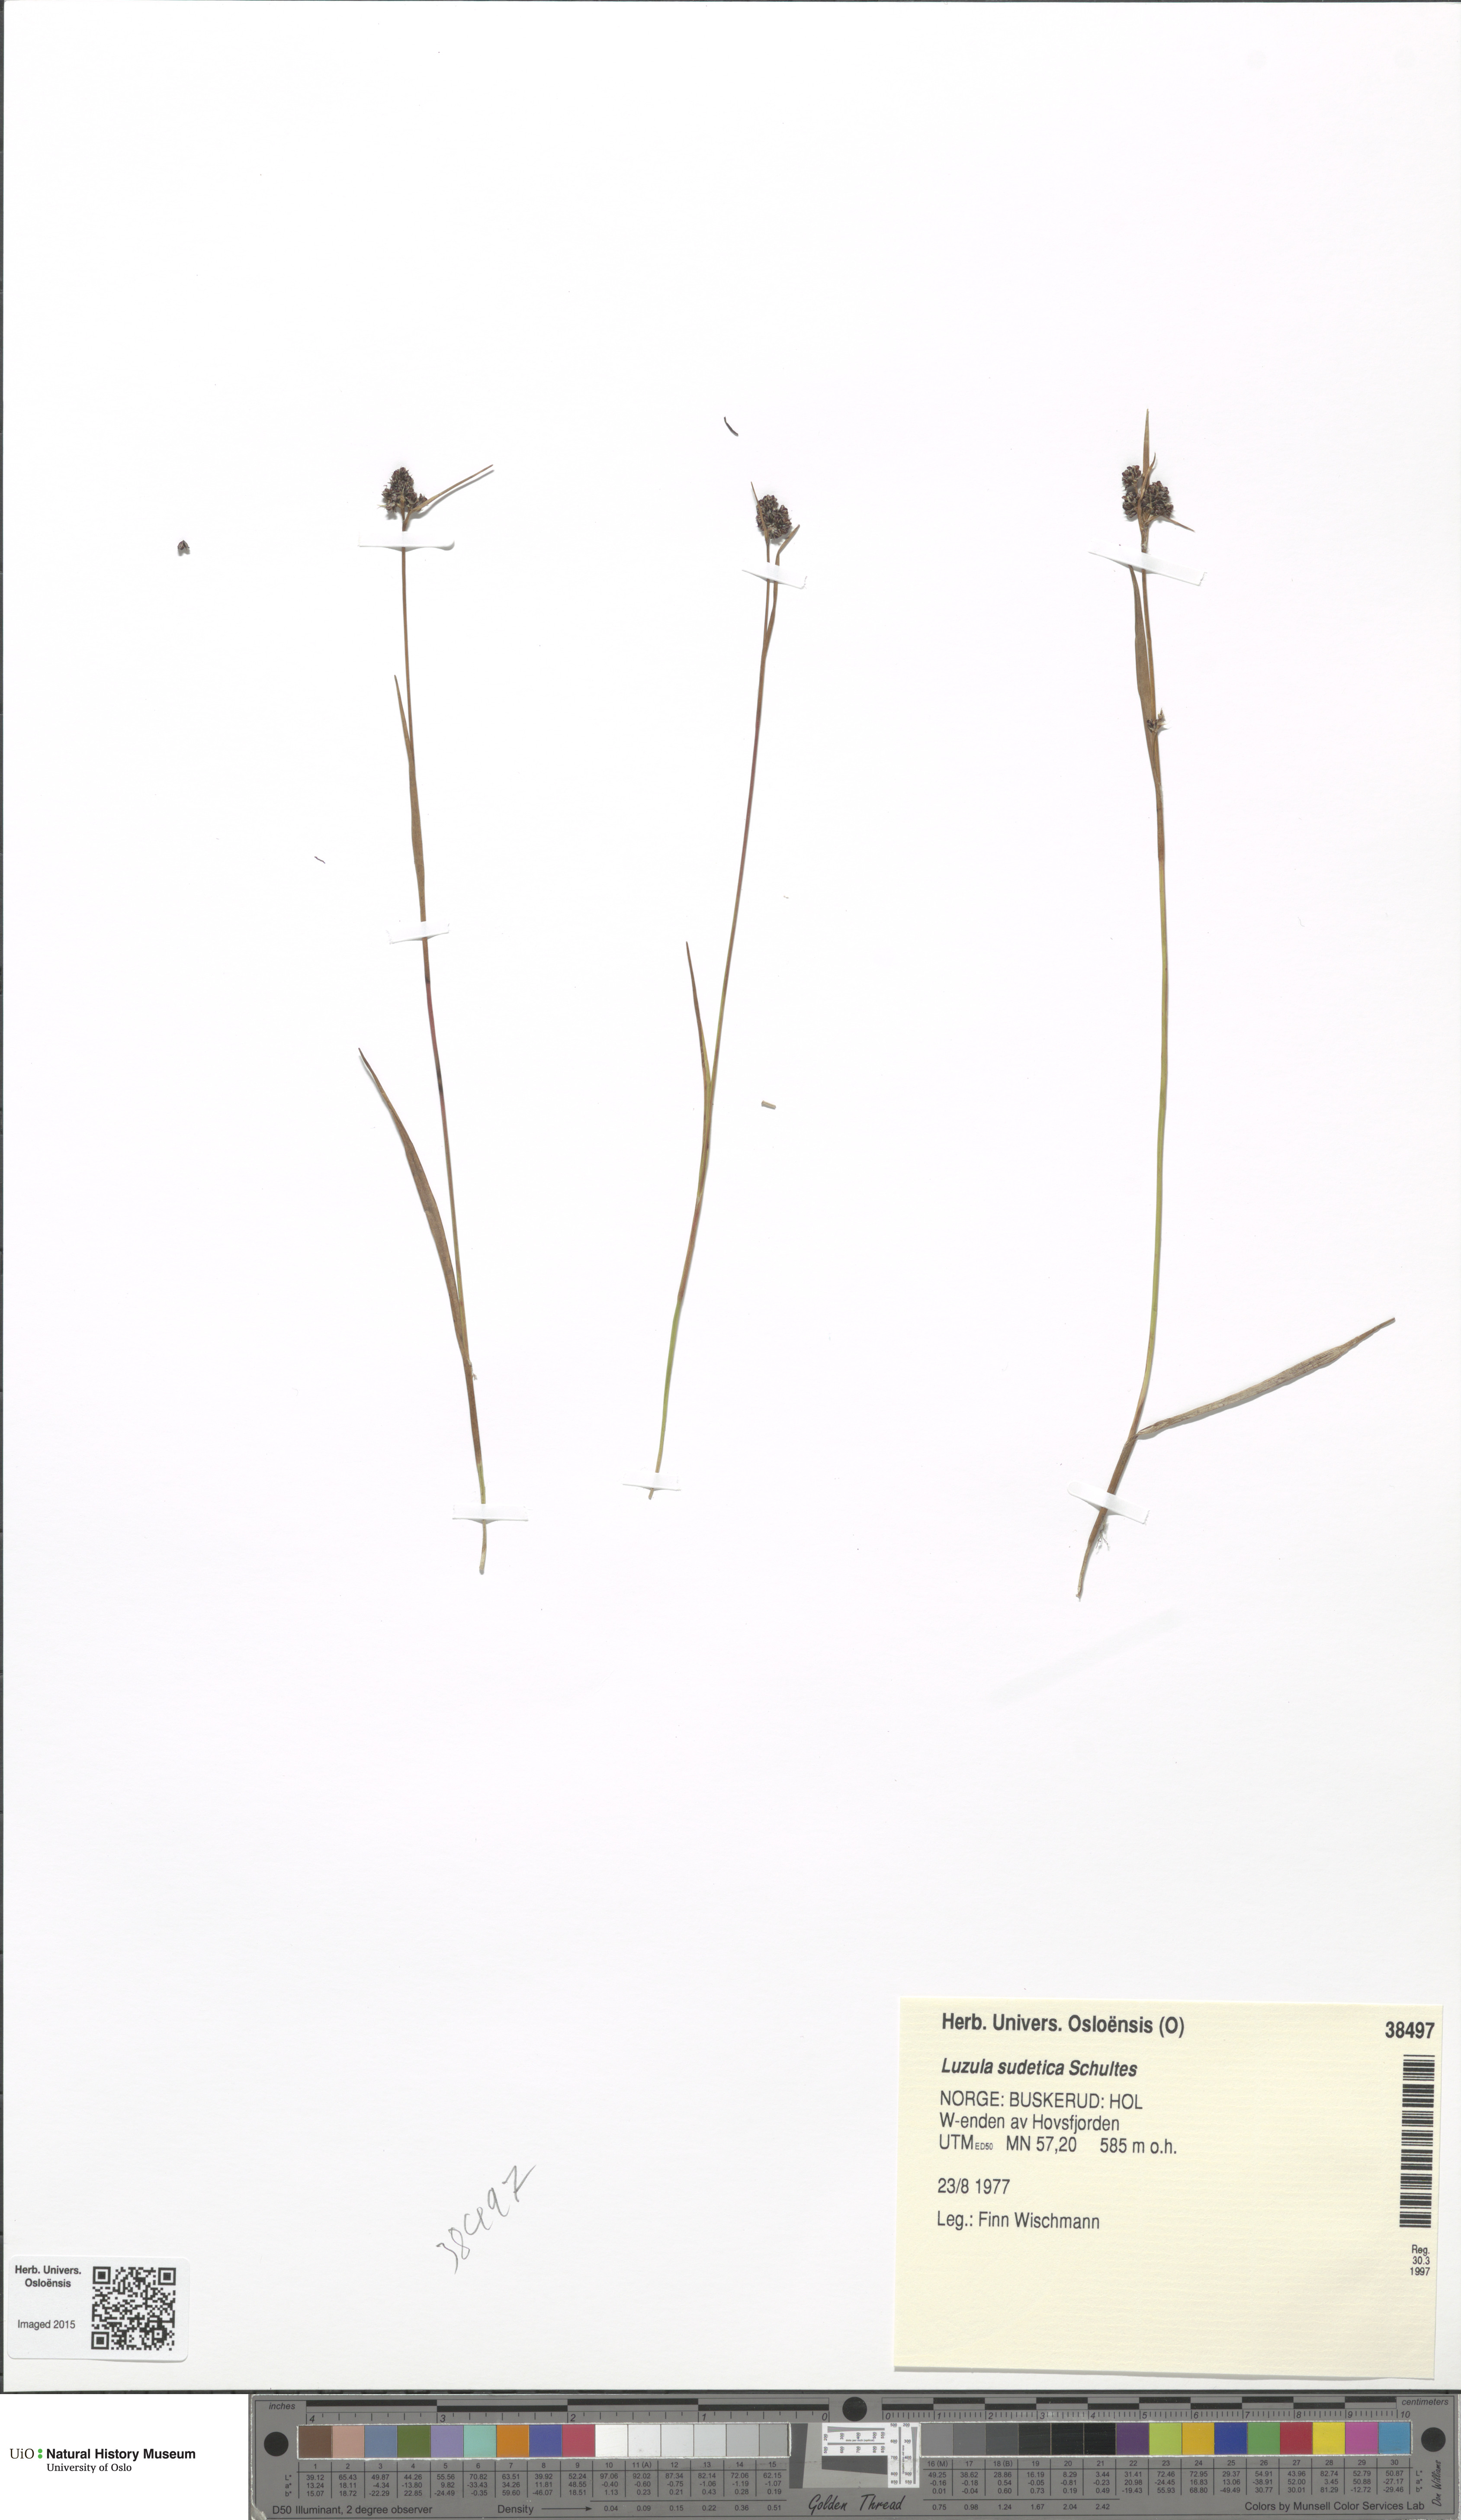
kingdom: Plantae
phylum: Tracheophyta
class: Liliopsida
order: Poales
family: Juncaceae
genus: Luzula
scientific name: Luzula sudetica
